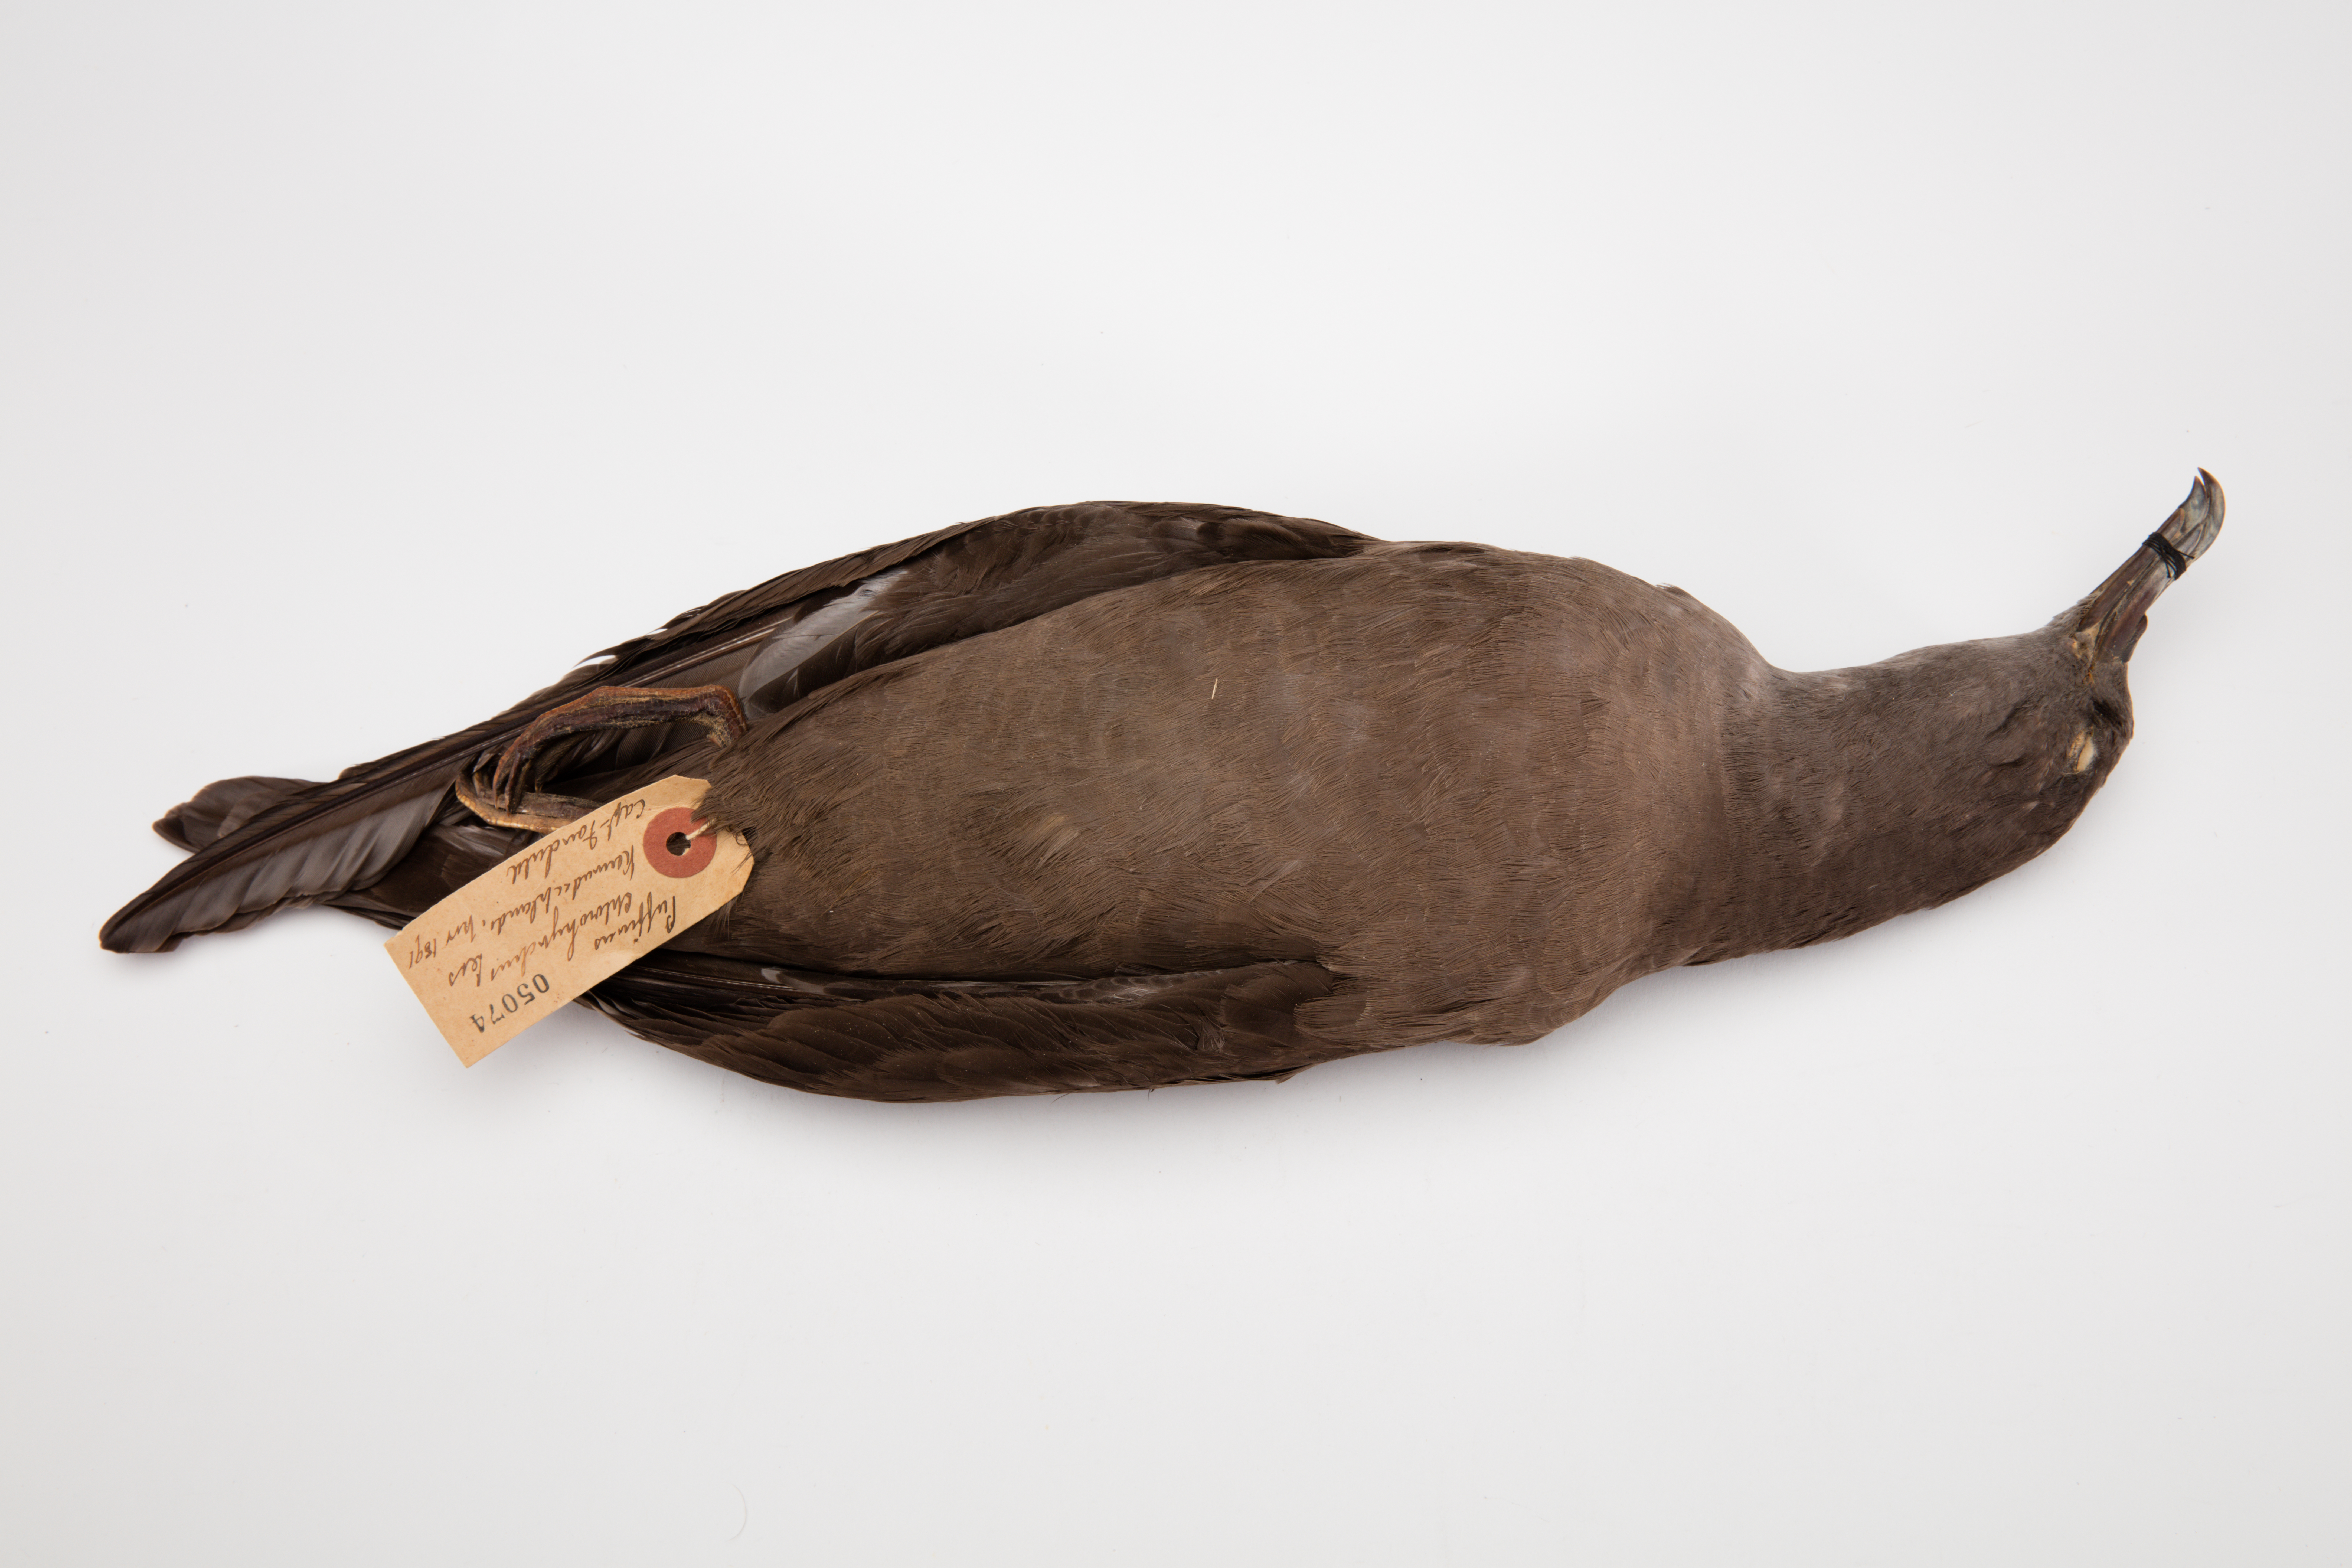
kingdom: Animalia
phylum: Chordata
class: Aves
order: Procellariiformes
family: Procellariidae
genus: Puffinus
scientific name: Puffinus pacificus
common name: Wedge-tailed shearwater
